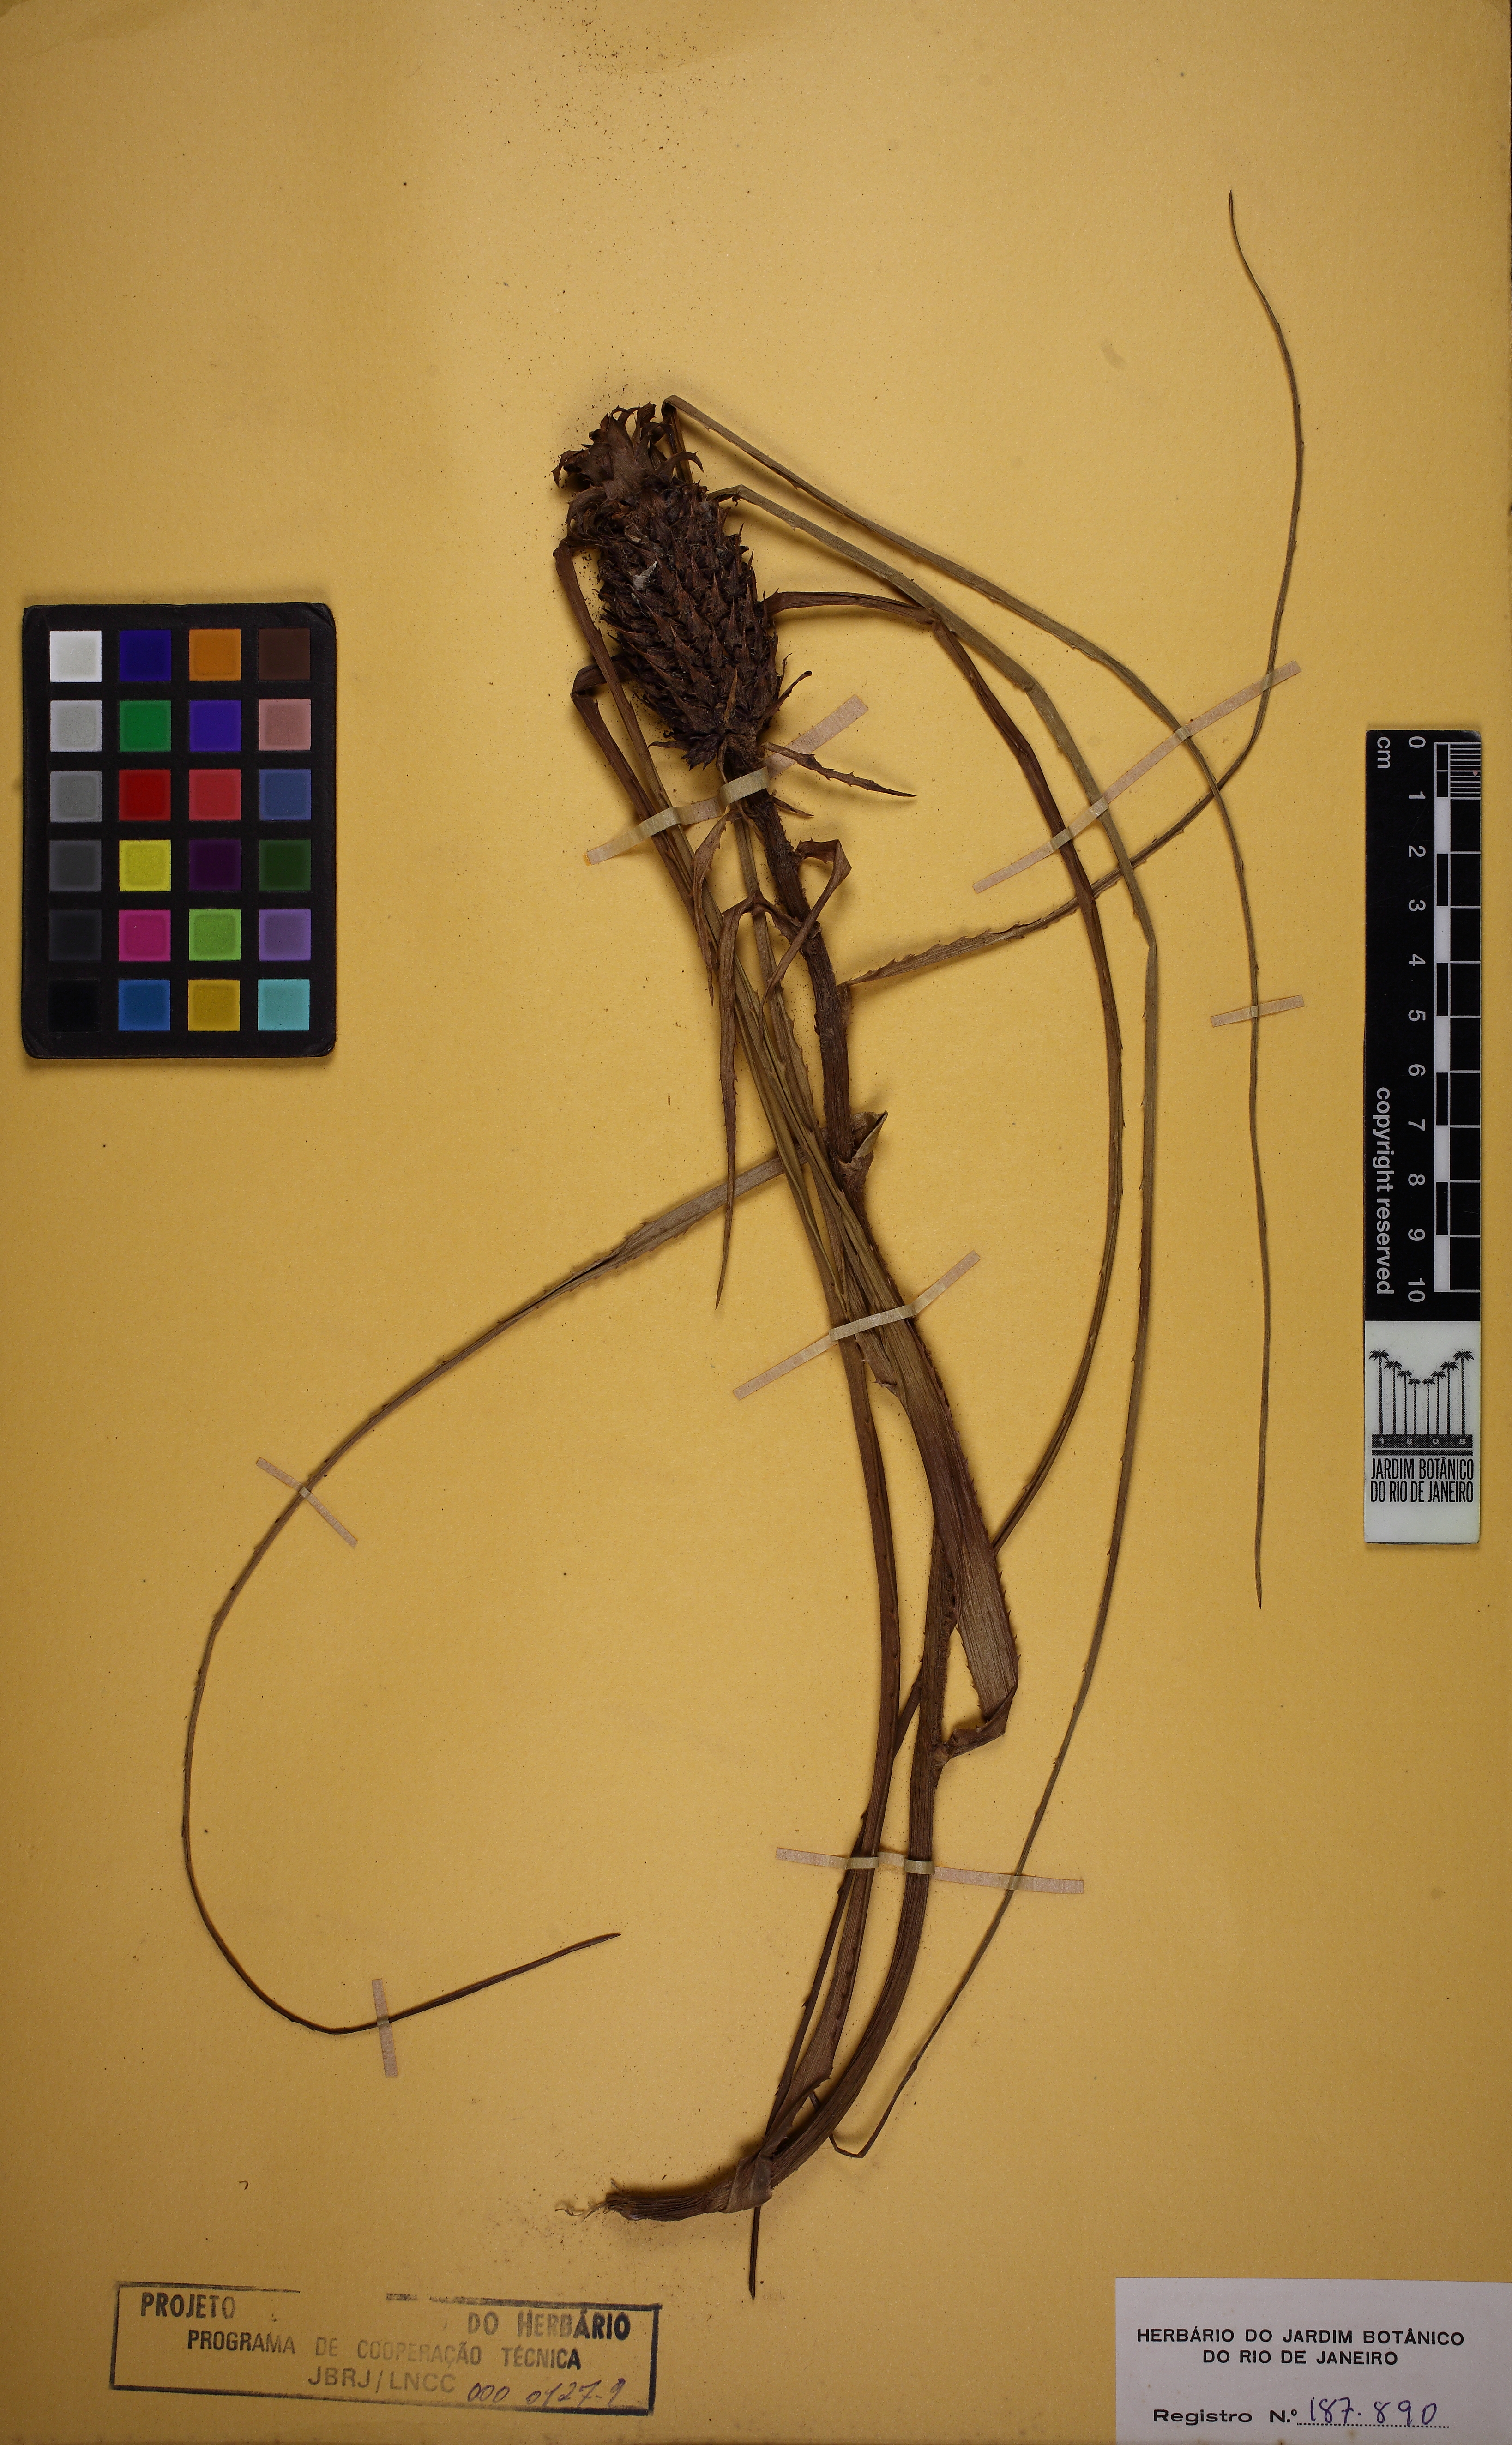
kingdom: Plantae
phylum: Tracheophyta
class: Liliopsida
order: Poales
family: Bromeliaceae
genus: Ananas
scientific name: Ananas comosus
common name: Pineapple
